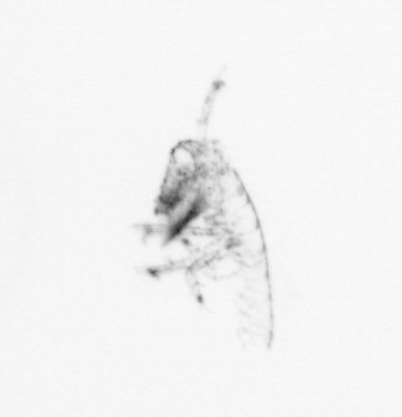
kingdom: Animalia
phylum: Arthropoda
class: Copepoda
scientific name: Copepoda
